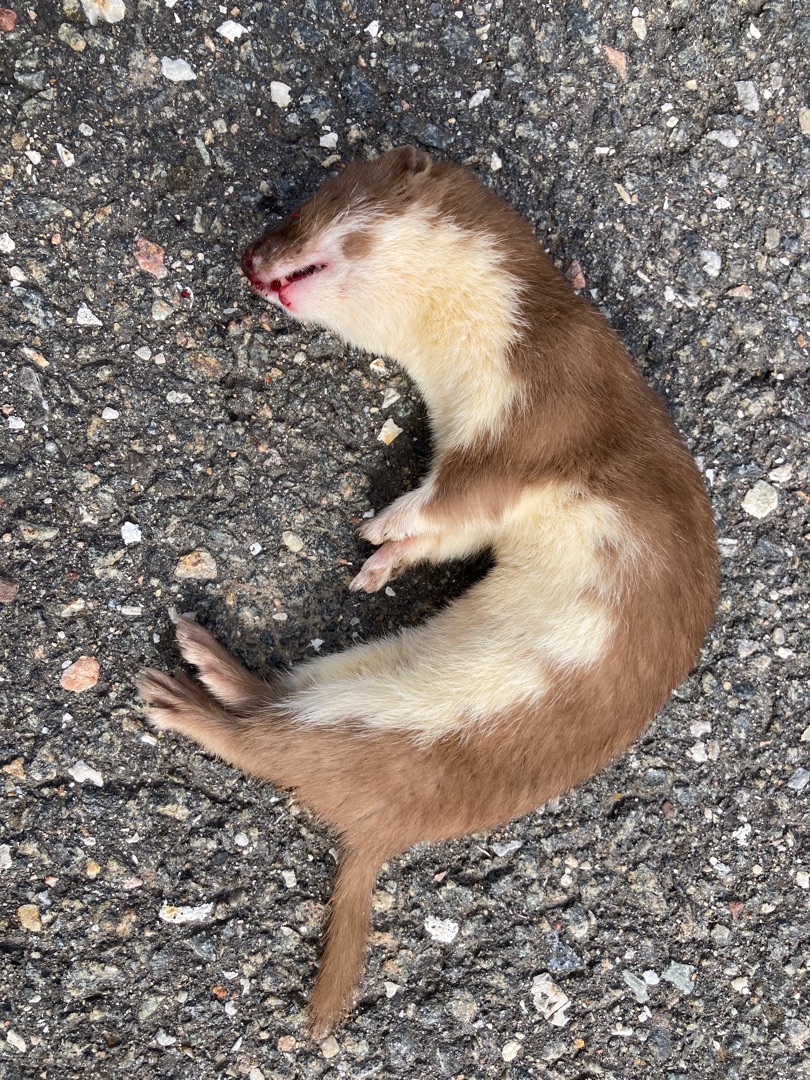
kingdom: Animalia
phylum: Chordata
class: Mammalia
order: Carnivora
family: Mustelidae
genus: Mustela
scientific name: Mustela nivalis
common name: Brud
